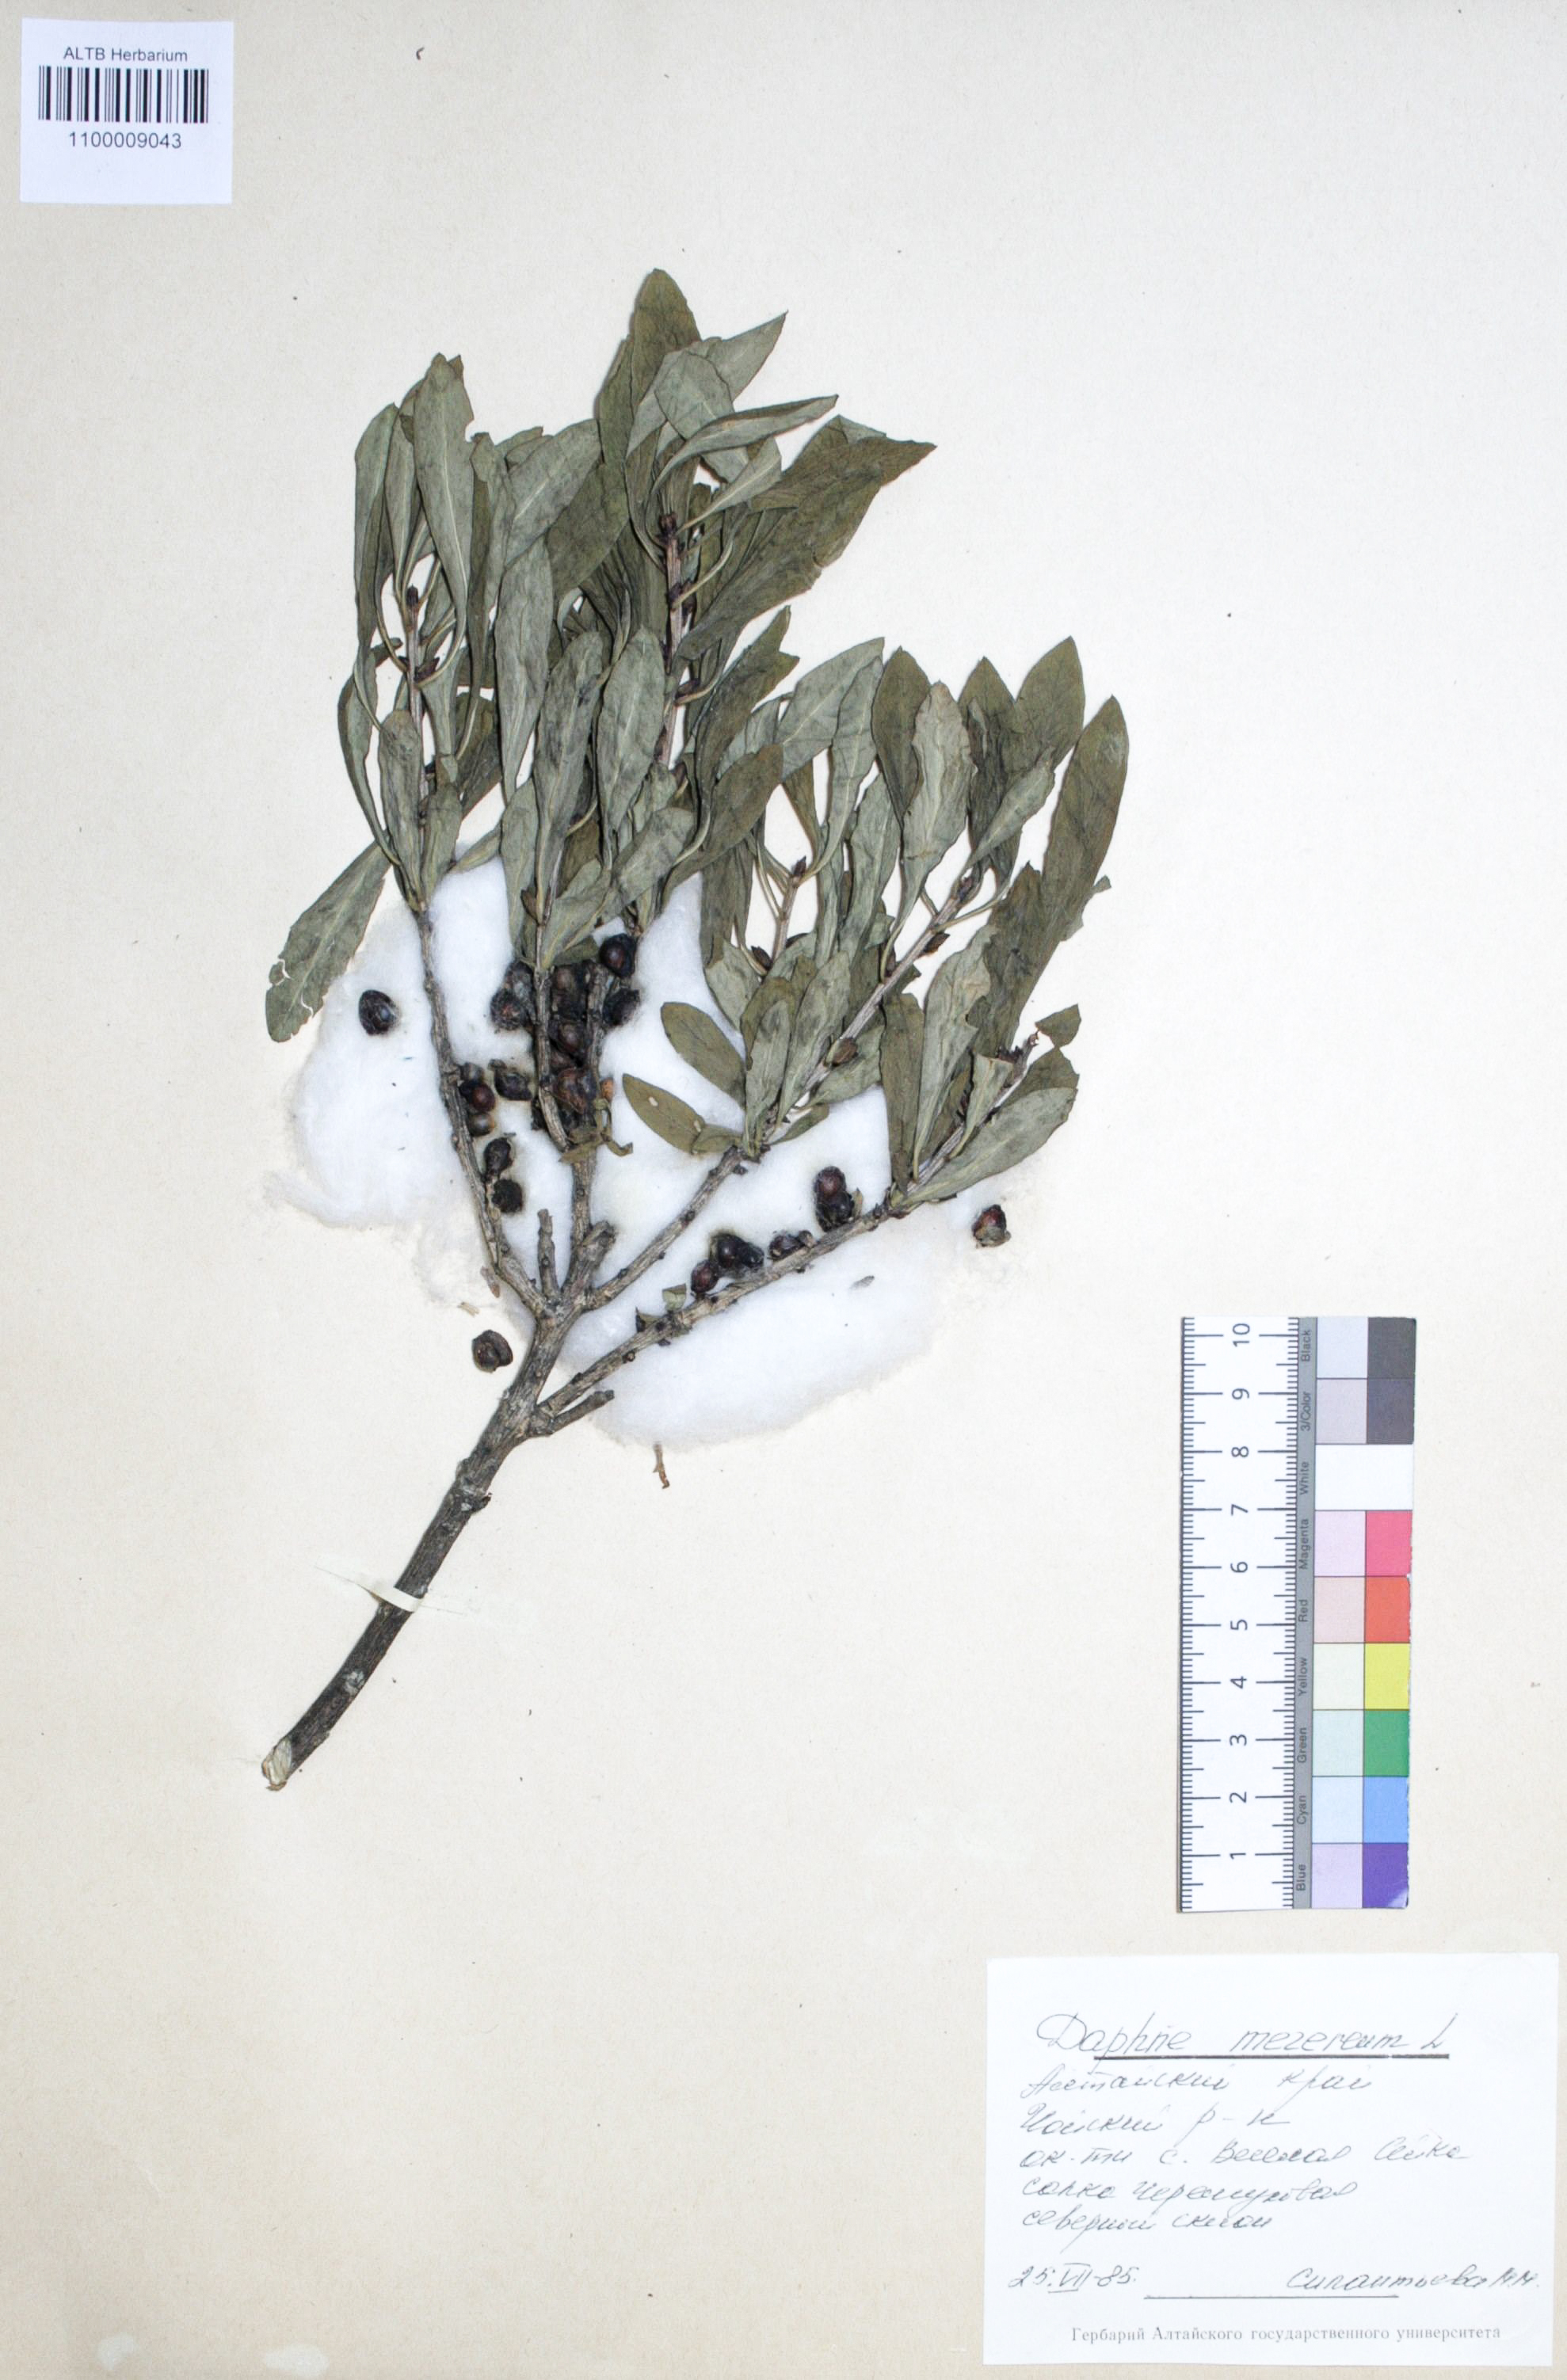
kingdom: Plantae
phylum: Tracheophyta
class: Magnoliopsida
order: Malvales
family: Thymelaeaceae
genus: Daphne
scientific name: Daphne mezereum
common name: Mezereon
